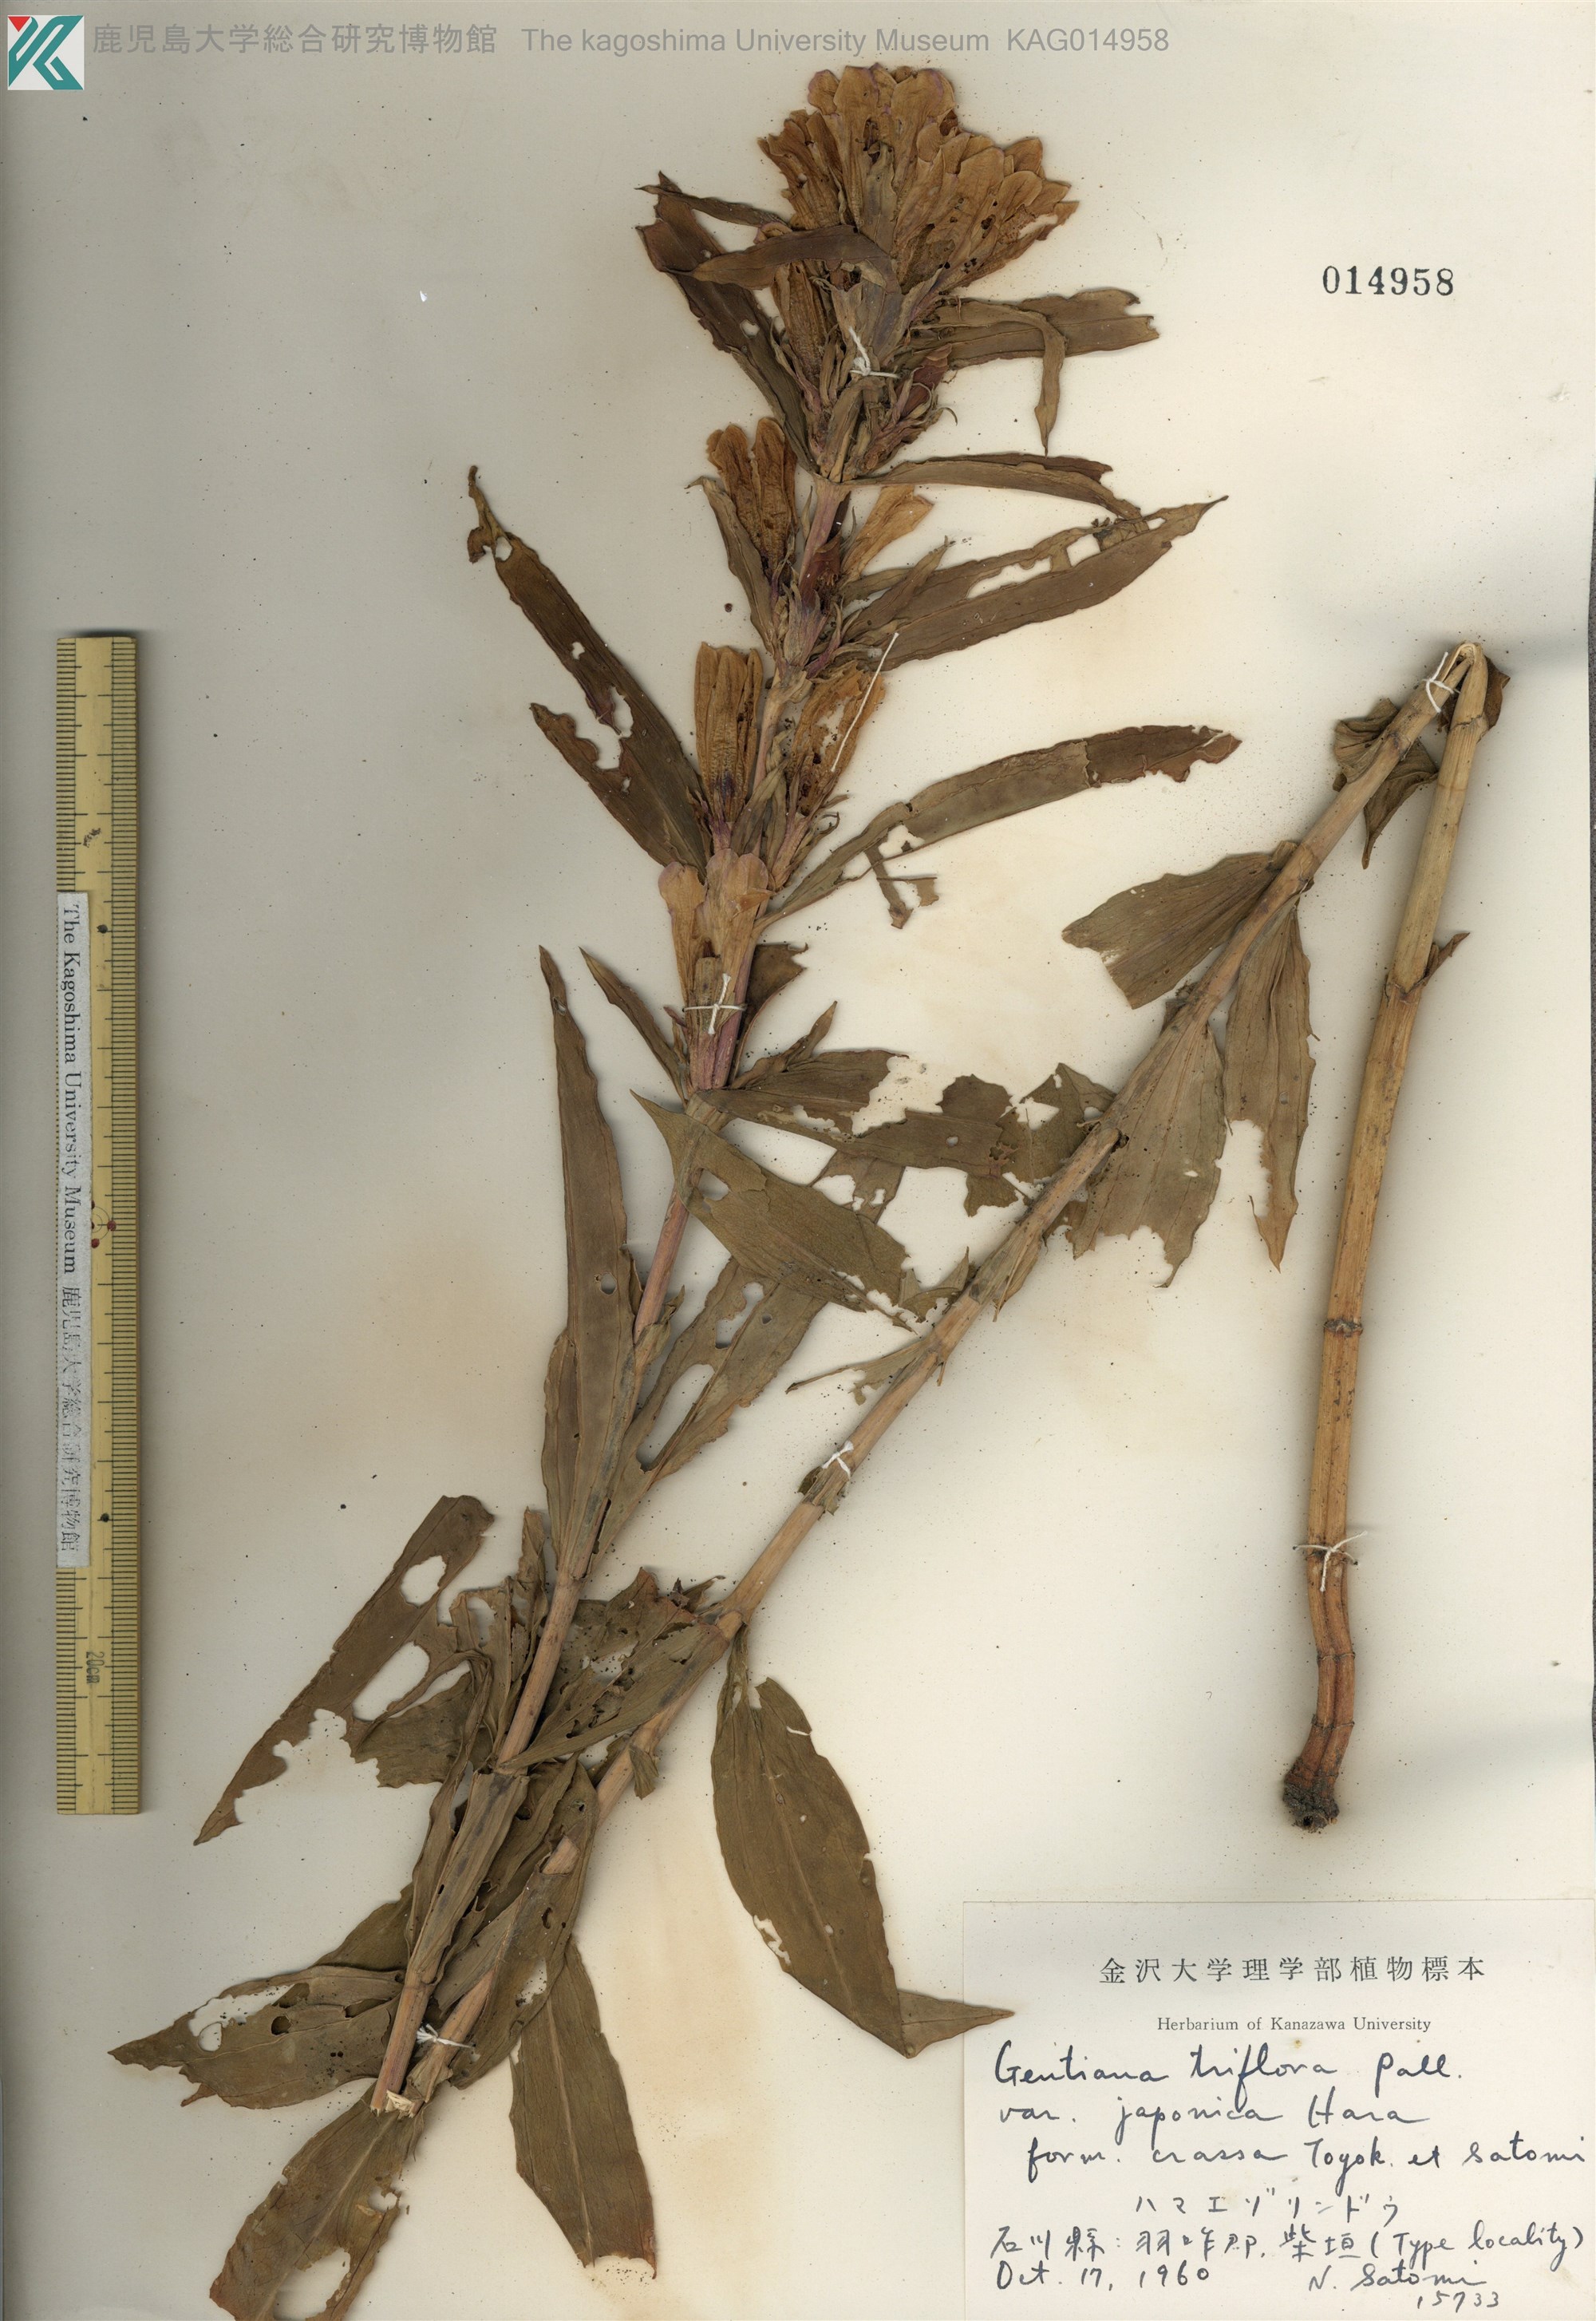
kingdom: Plantae
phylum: Tracheophyta
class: Magnoliopsida
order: Gentianales
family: Gentianaceae
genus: Gentiana
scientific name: Gentiana triflora
